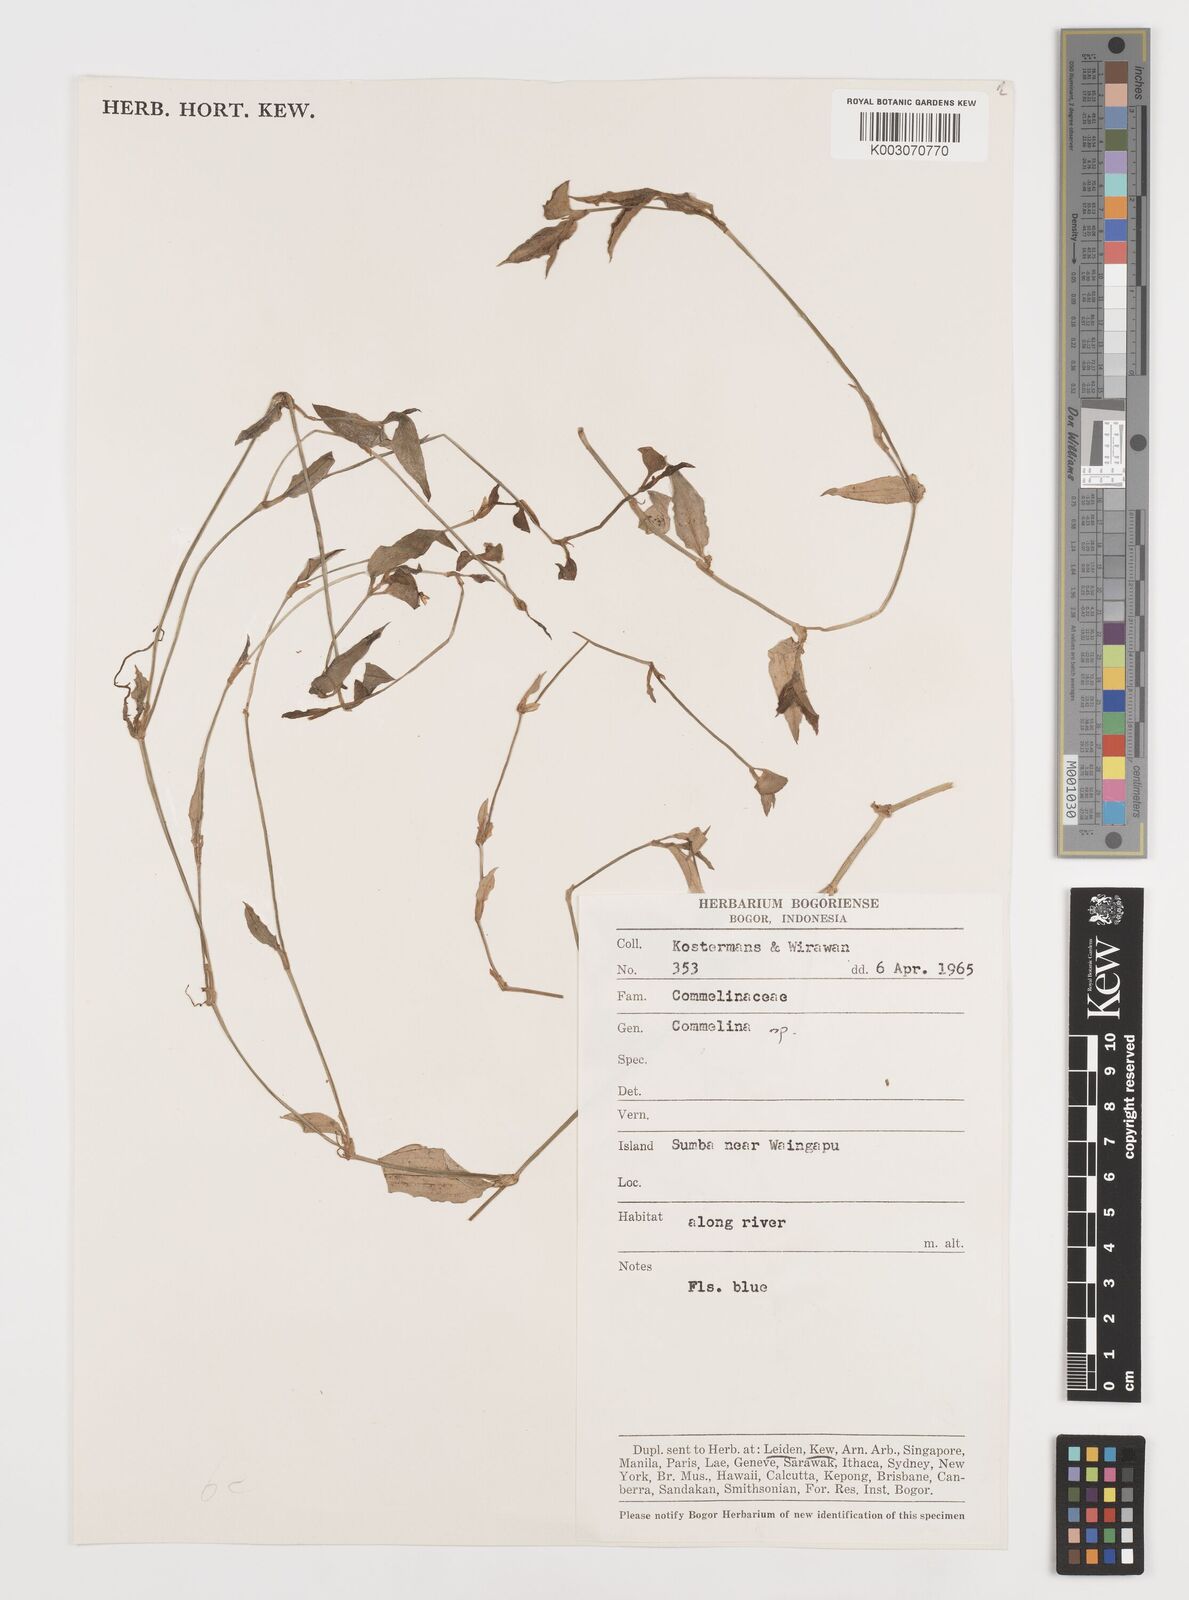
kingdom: Plantae
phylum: Tracheophyta
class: Liliopsida
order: Commelinales
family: Commelinaceae
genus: Commelina
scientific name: Commelina
